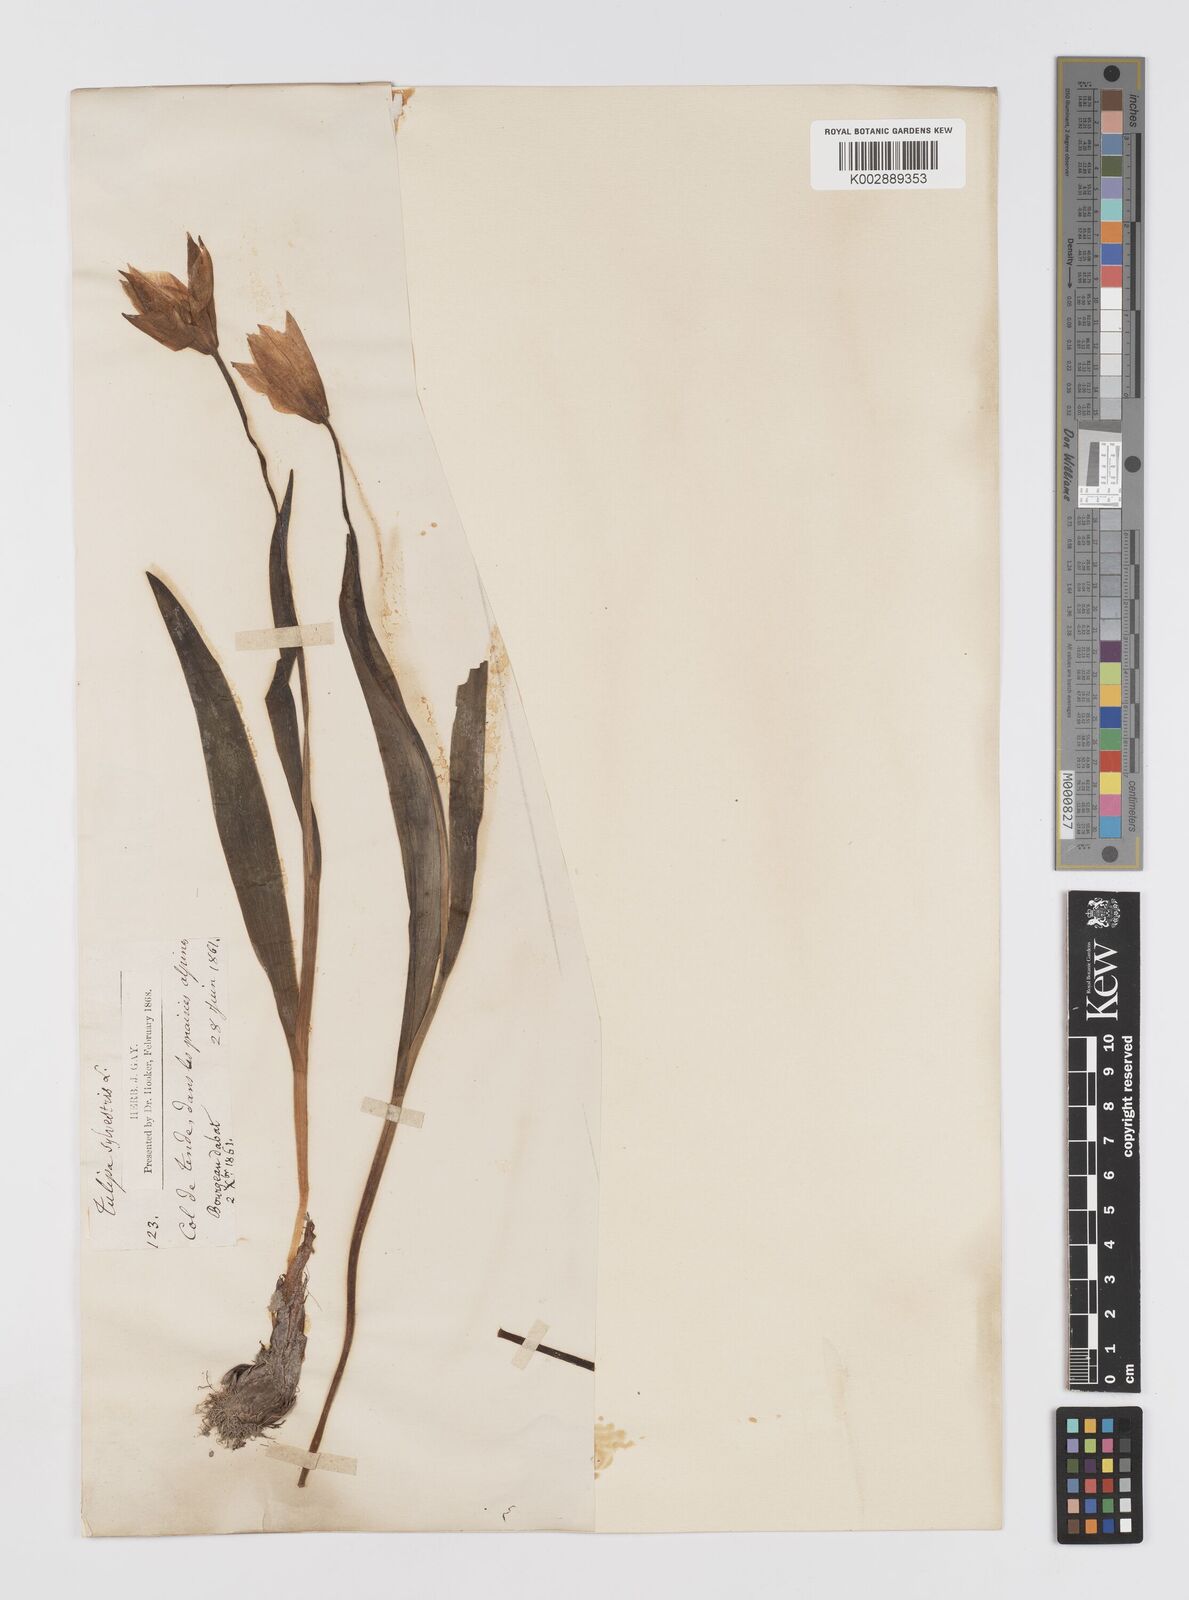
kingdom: Plantae
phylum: Tracheophyta
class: Liliopsida
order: Liliales
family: Liliaceae
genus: Tulipa
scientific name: Tulipa sylvestris
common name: Wild tulip
